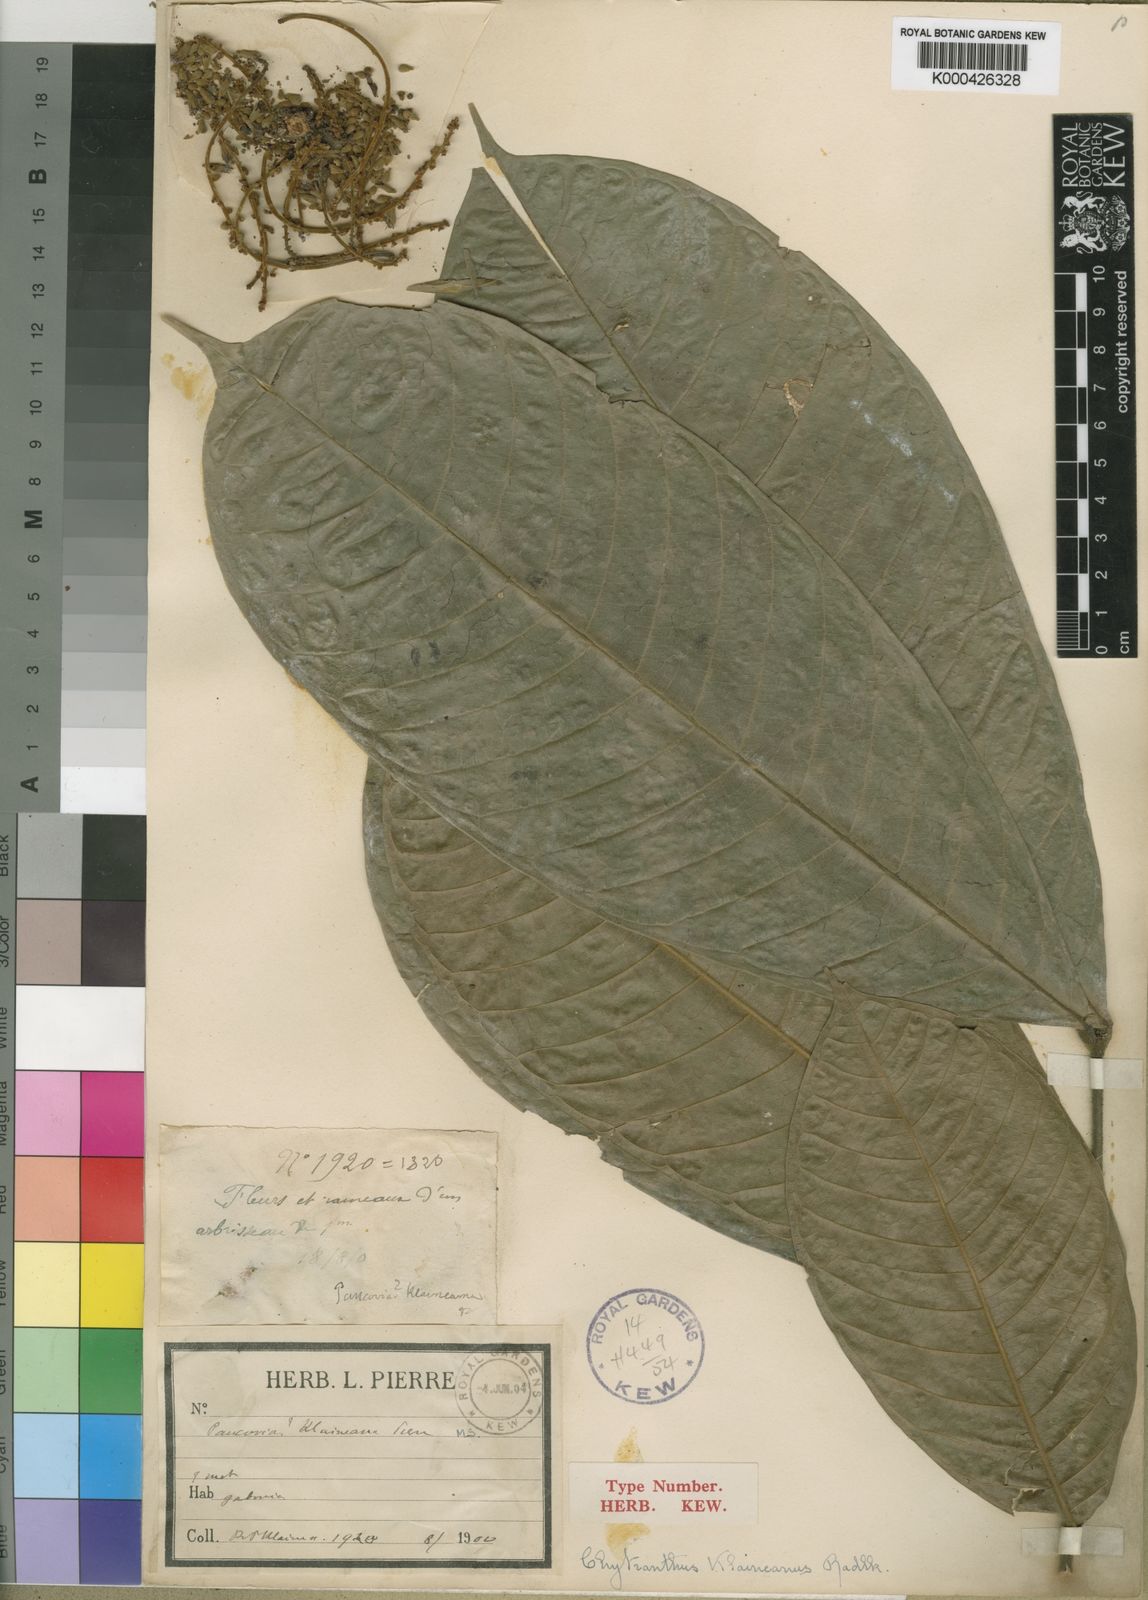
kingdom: Plantae
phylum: Tracheophyta
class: Magnoliopsida
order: Sapindales
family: Sapindaceae
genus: Chytranthus
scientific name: Chytranthus
